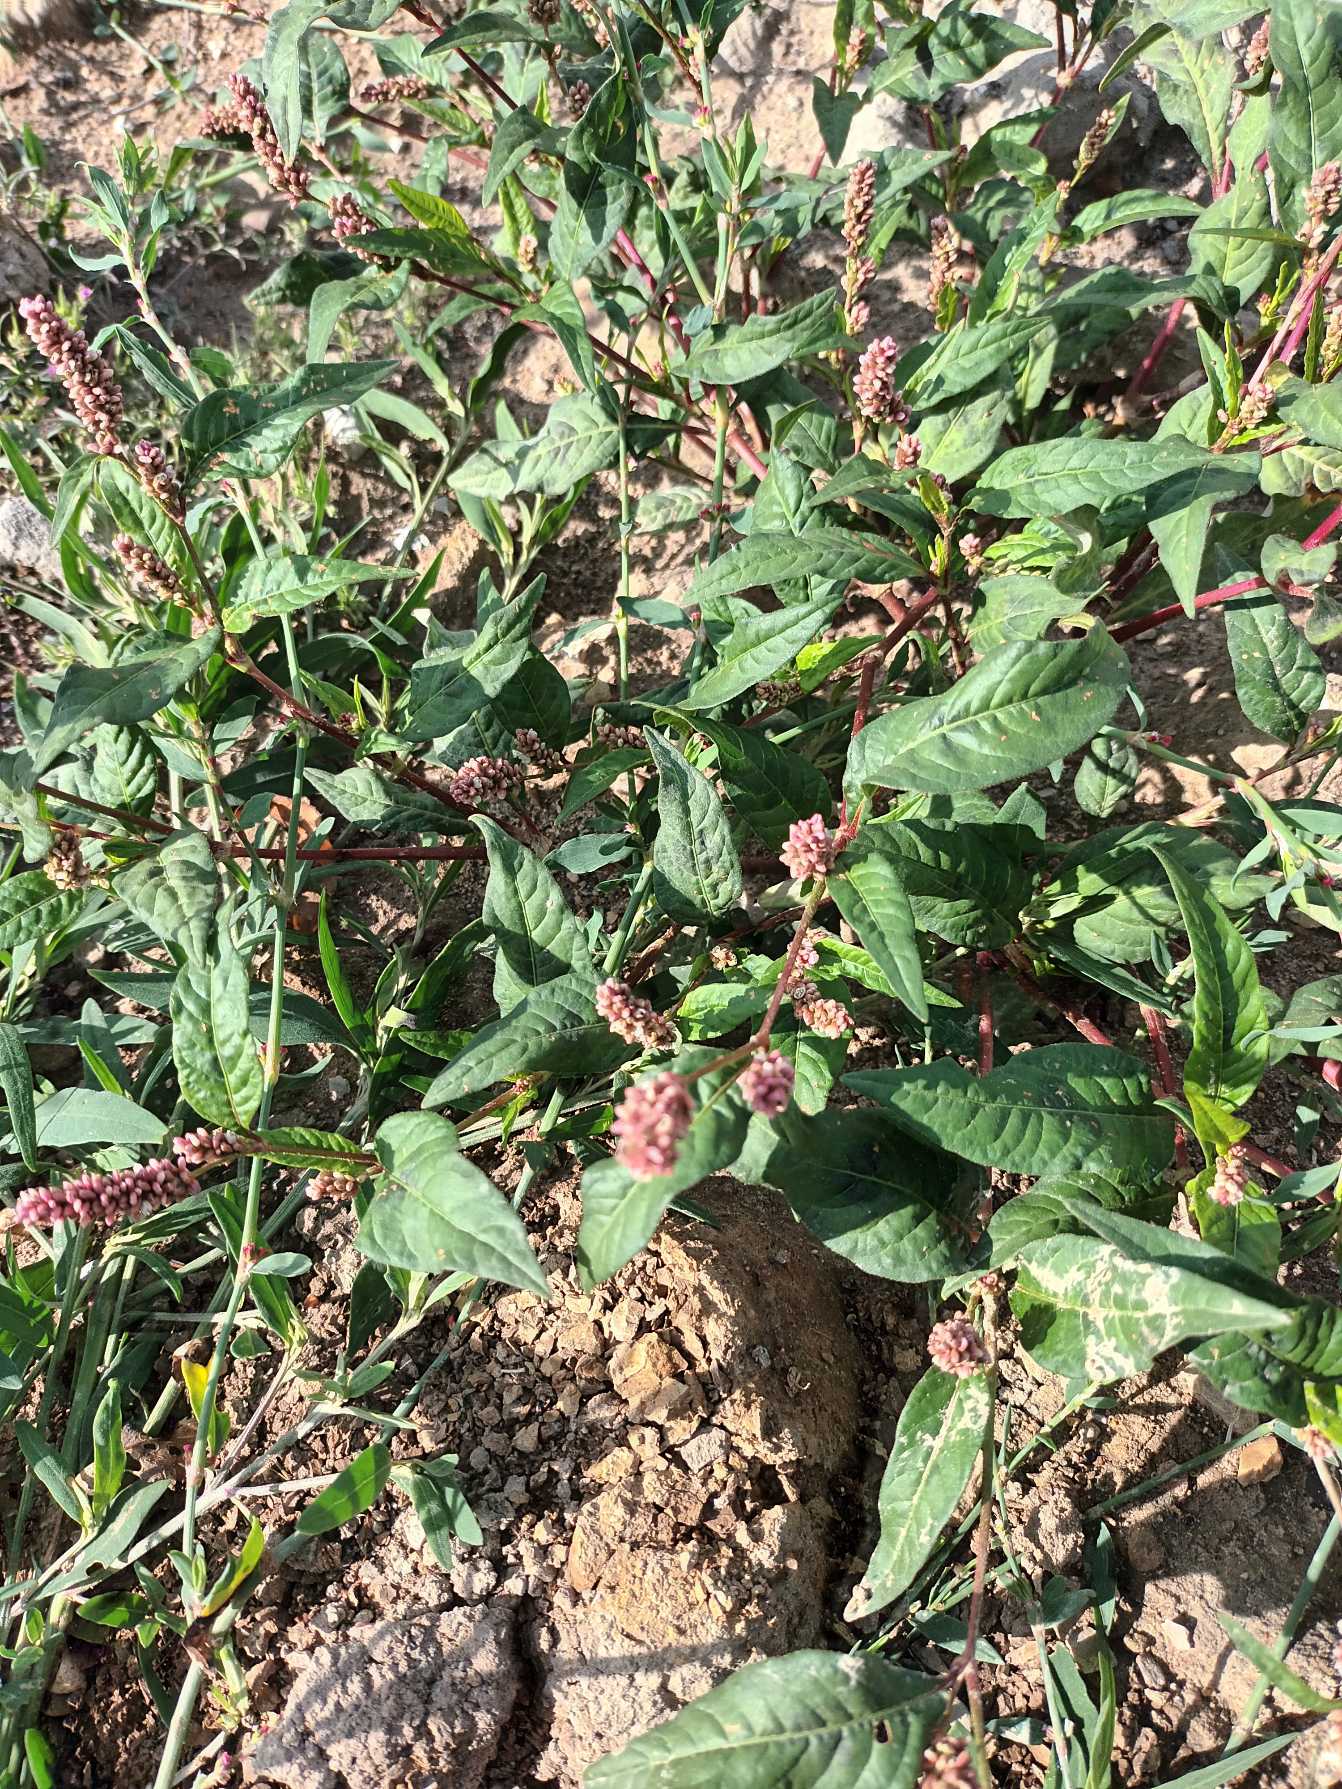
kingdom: Plantae
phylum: Tracheophyta
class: Magnoliopsida
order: Caryophyllales
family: Polygonaceae
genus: Persicaria
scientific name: Persicaria lapathifolia
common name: Knudet pileurt (underart)
